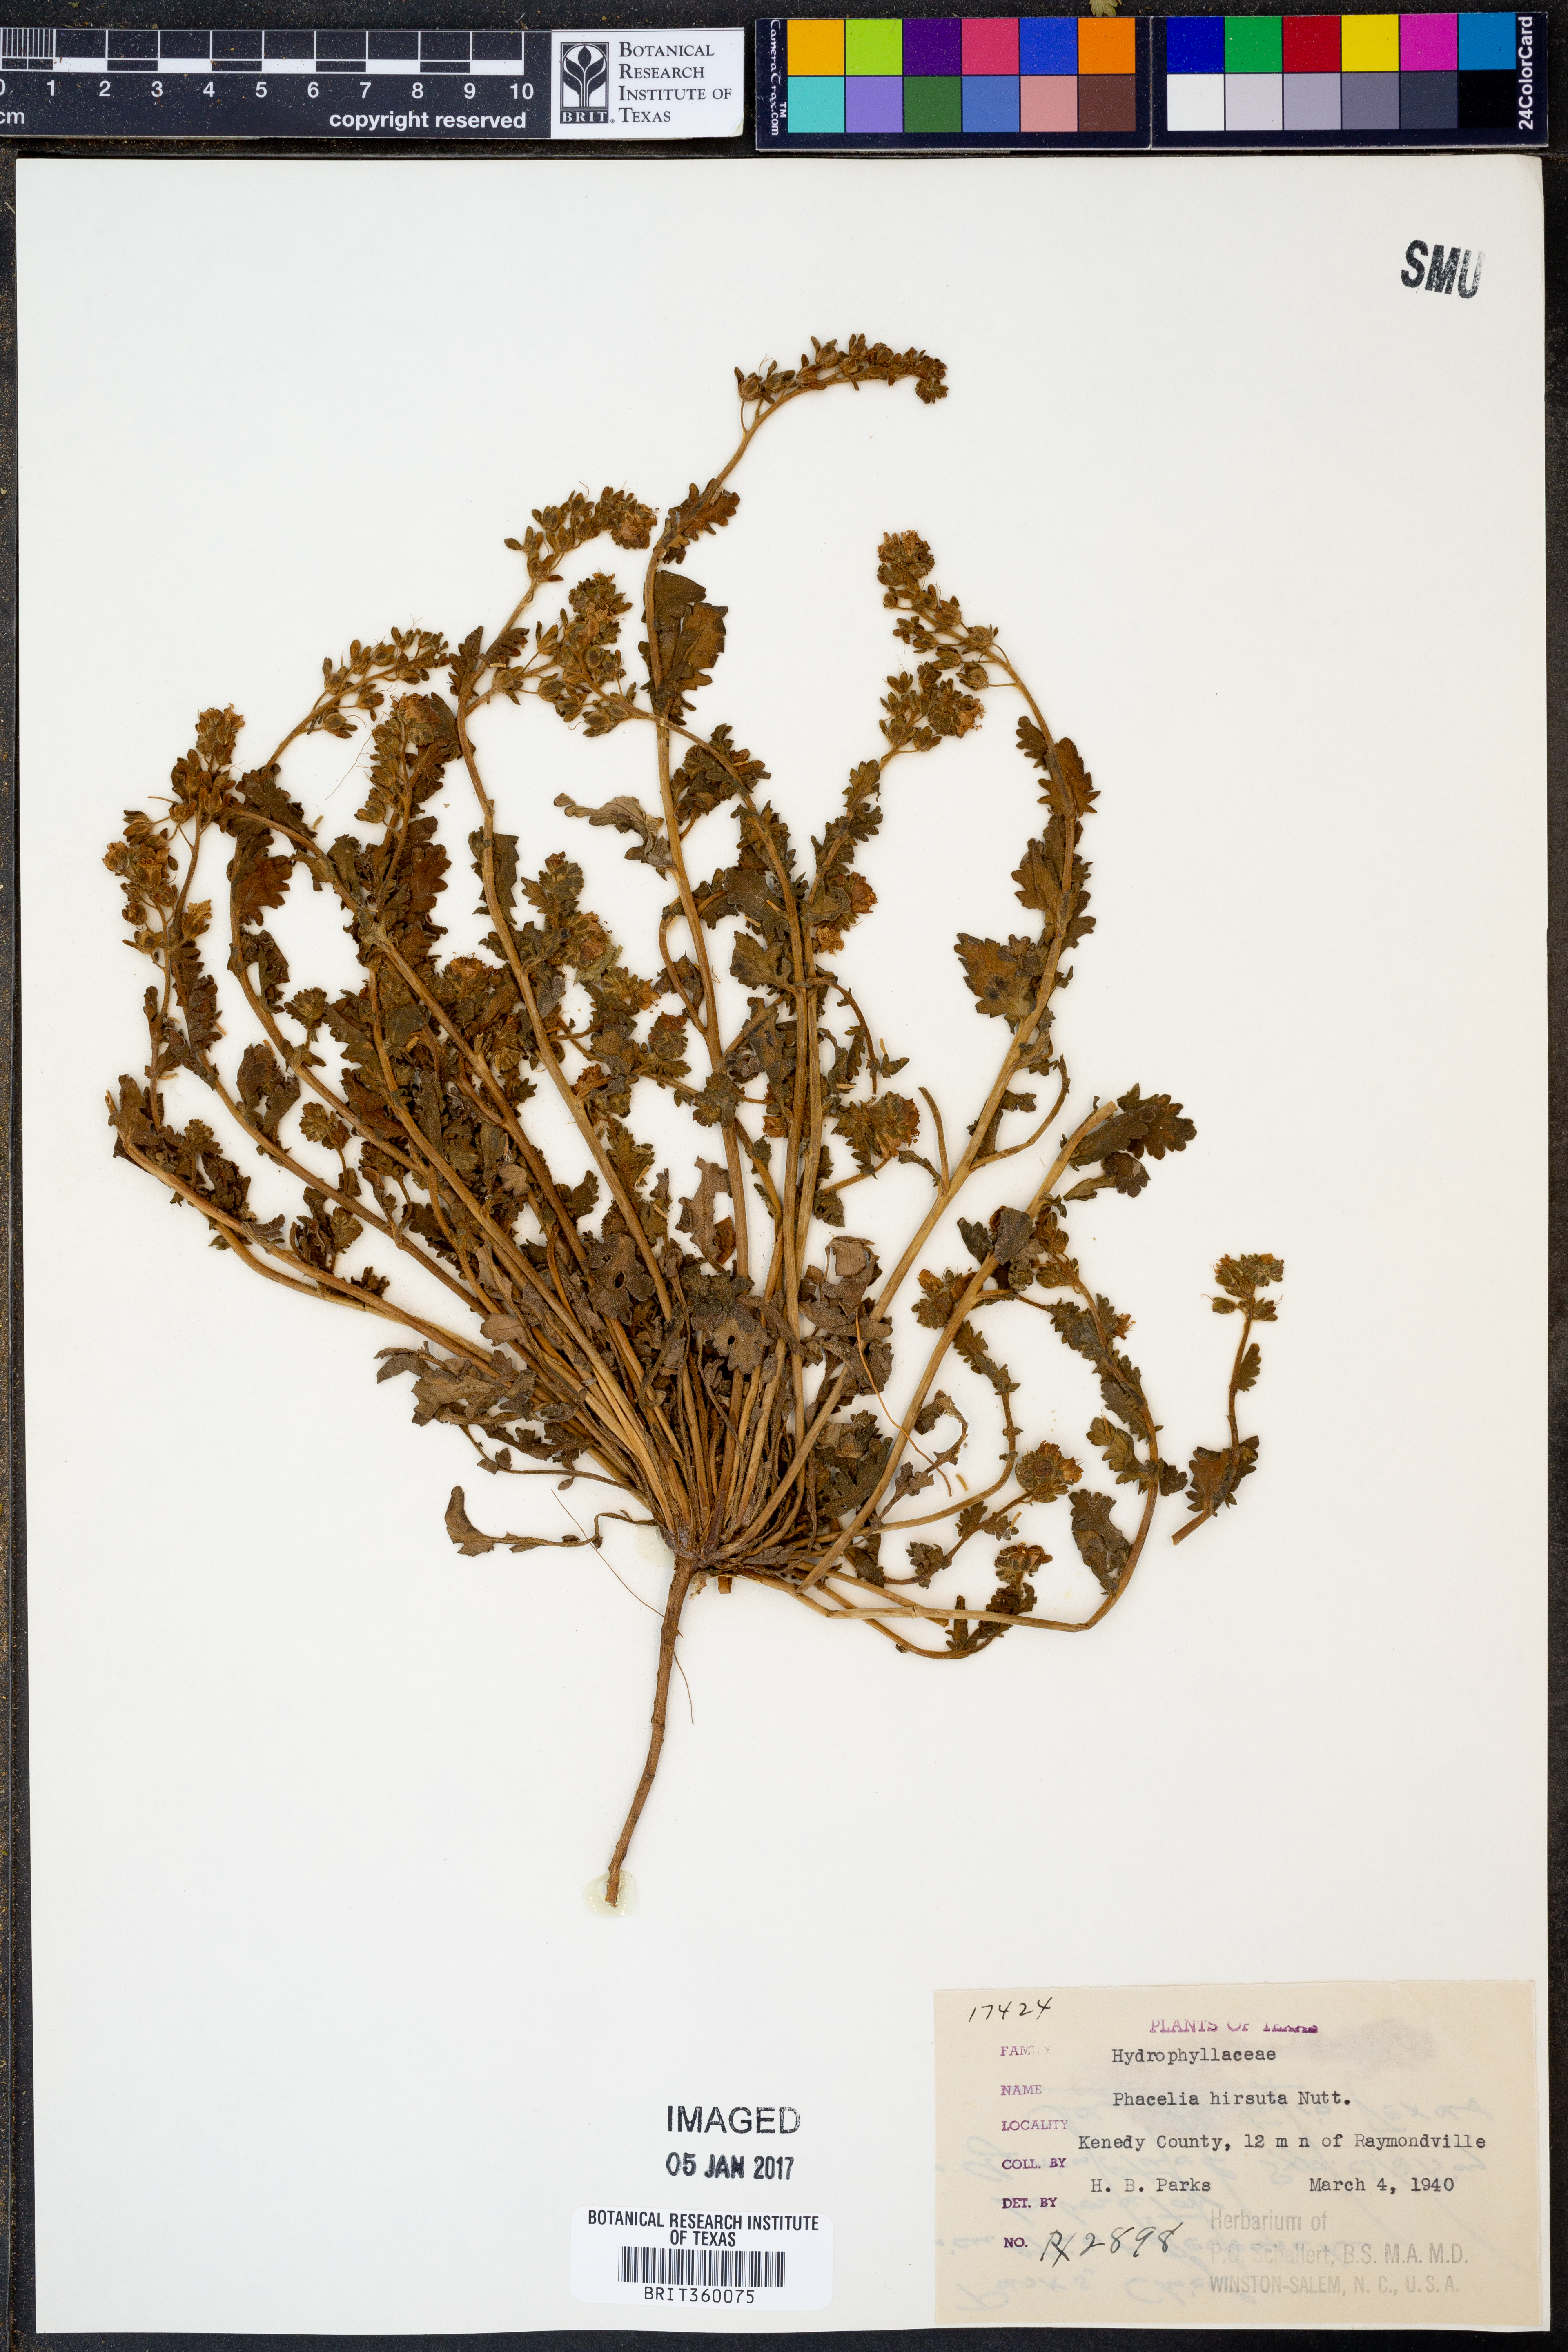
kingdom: Plantae
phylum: Tracheophyta
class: Magnoliopsida
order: Boraginales
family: Hydrophyllaceae
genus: Phacelia
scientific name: Phacelia hirsuta
